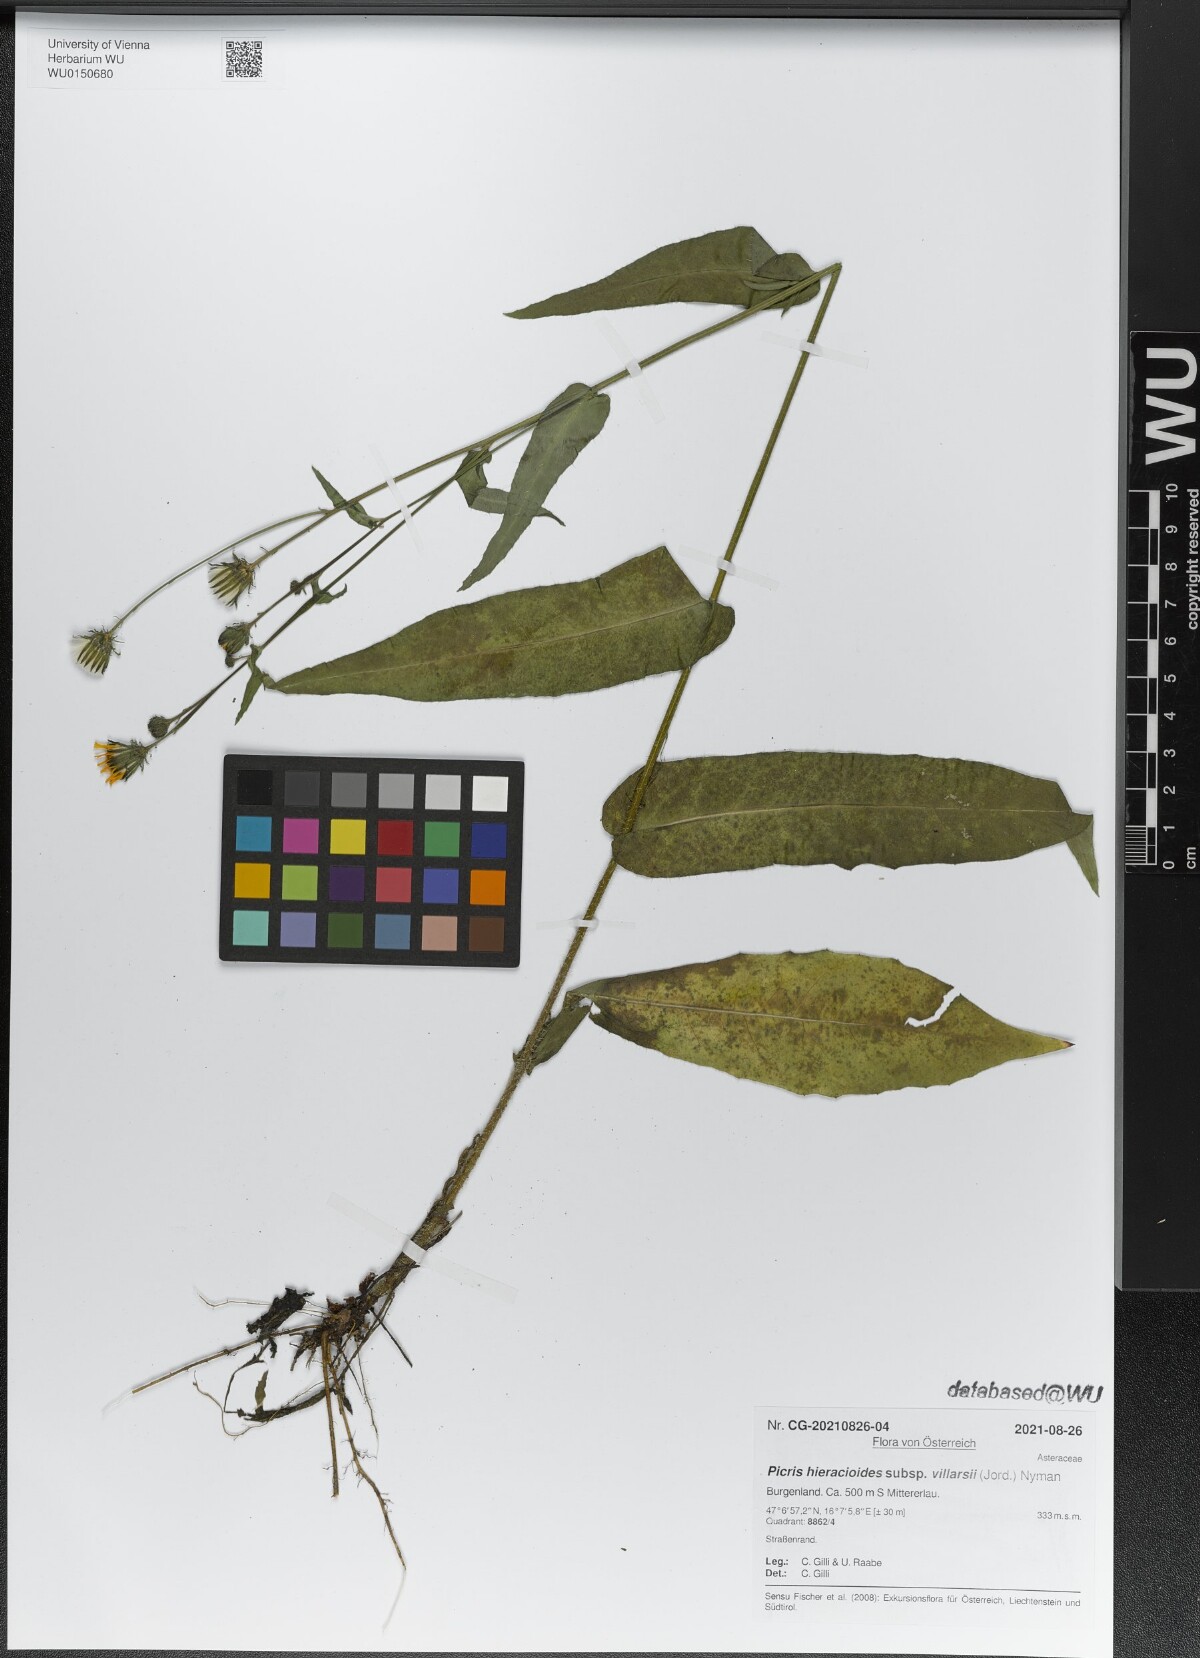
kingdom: Plantae
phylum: Tracheophyta
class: Magnoliopsida
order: Asterales
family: Asteraceae
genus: Picris
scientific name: Picris hieracioides
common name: Hawkweed oxtongue
